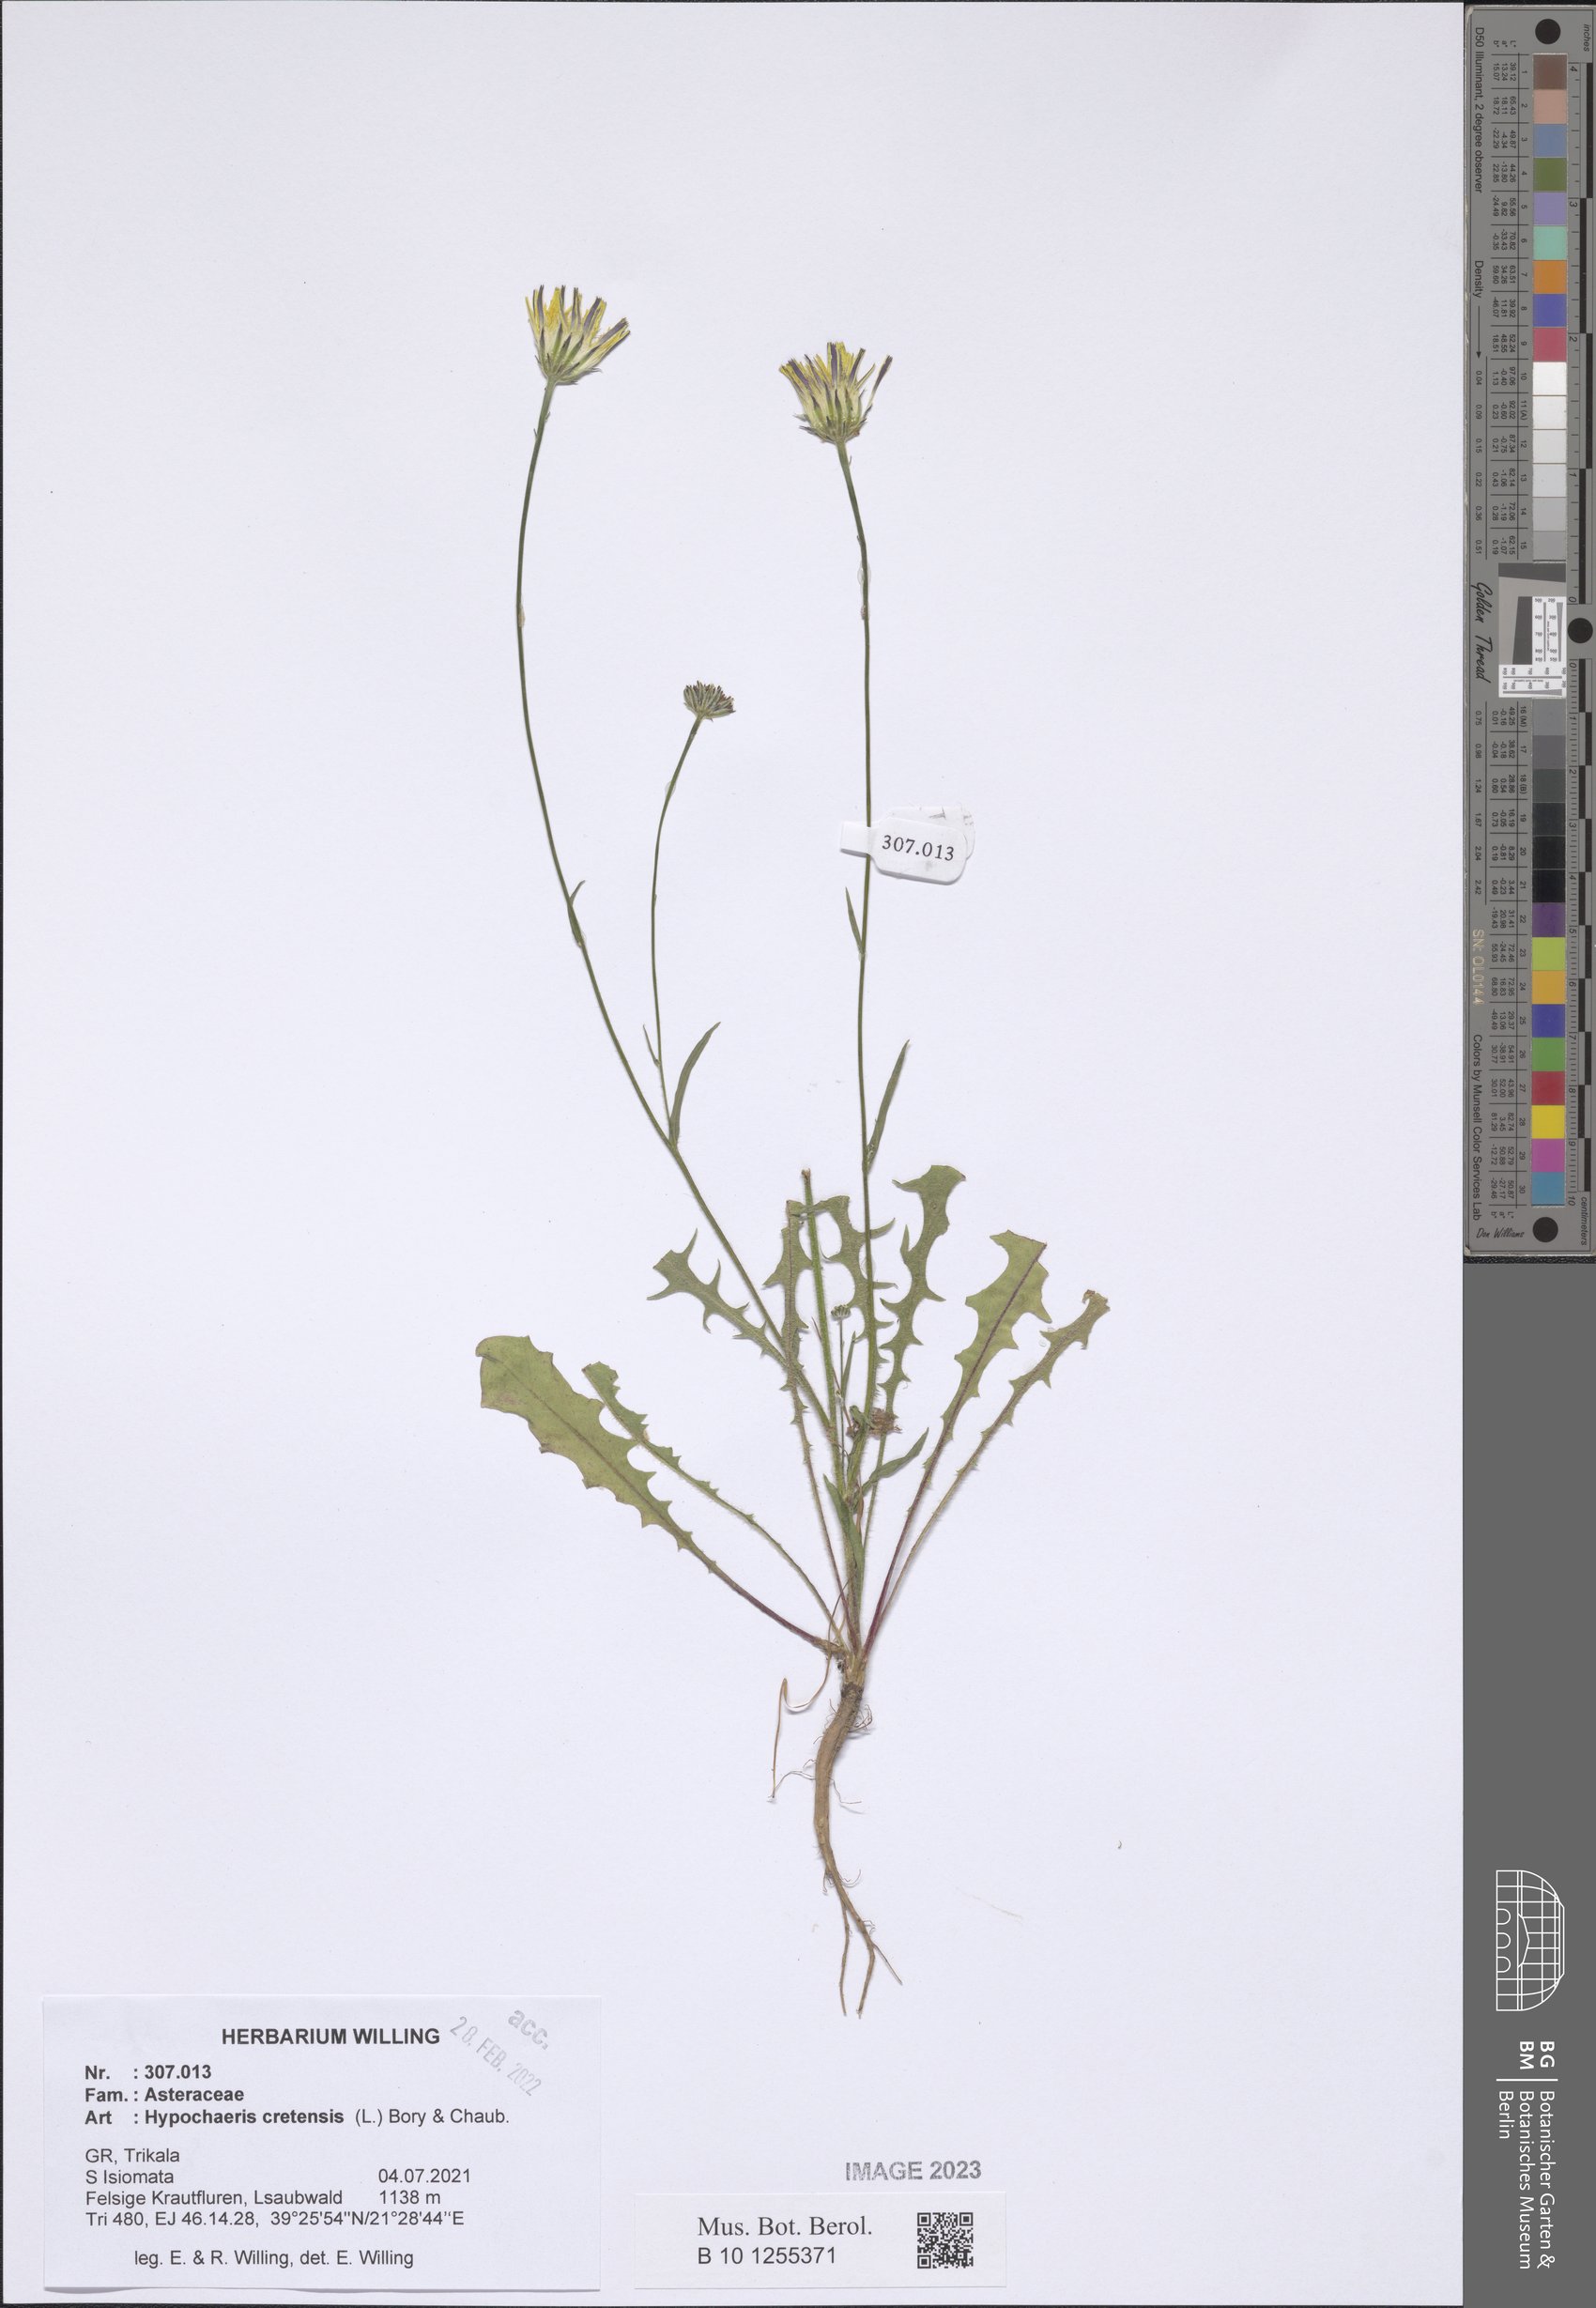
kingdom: Plantae
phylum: Tracheophyta
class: Magnoliopsida
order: Asterales
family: Asteraceae
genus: Hypochaeris
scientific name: Hypochaeris cretensis
